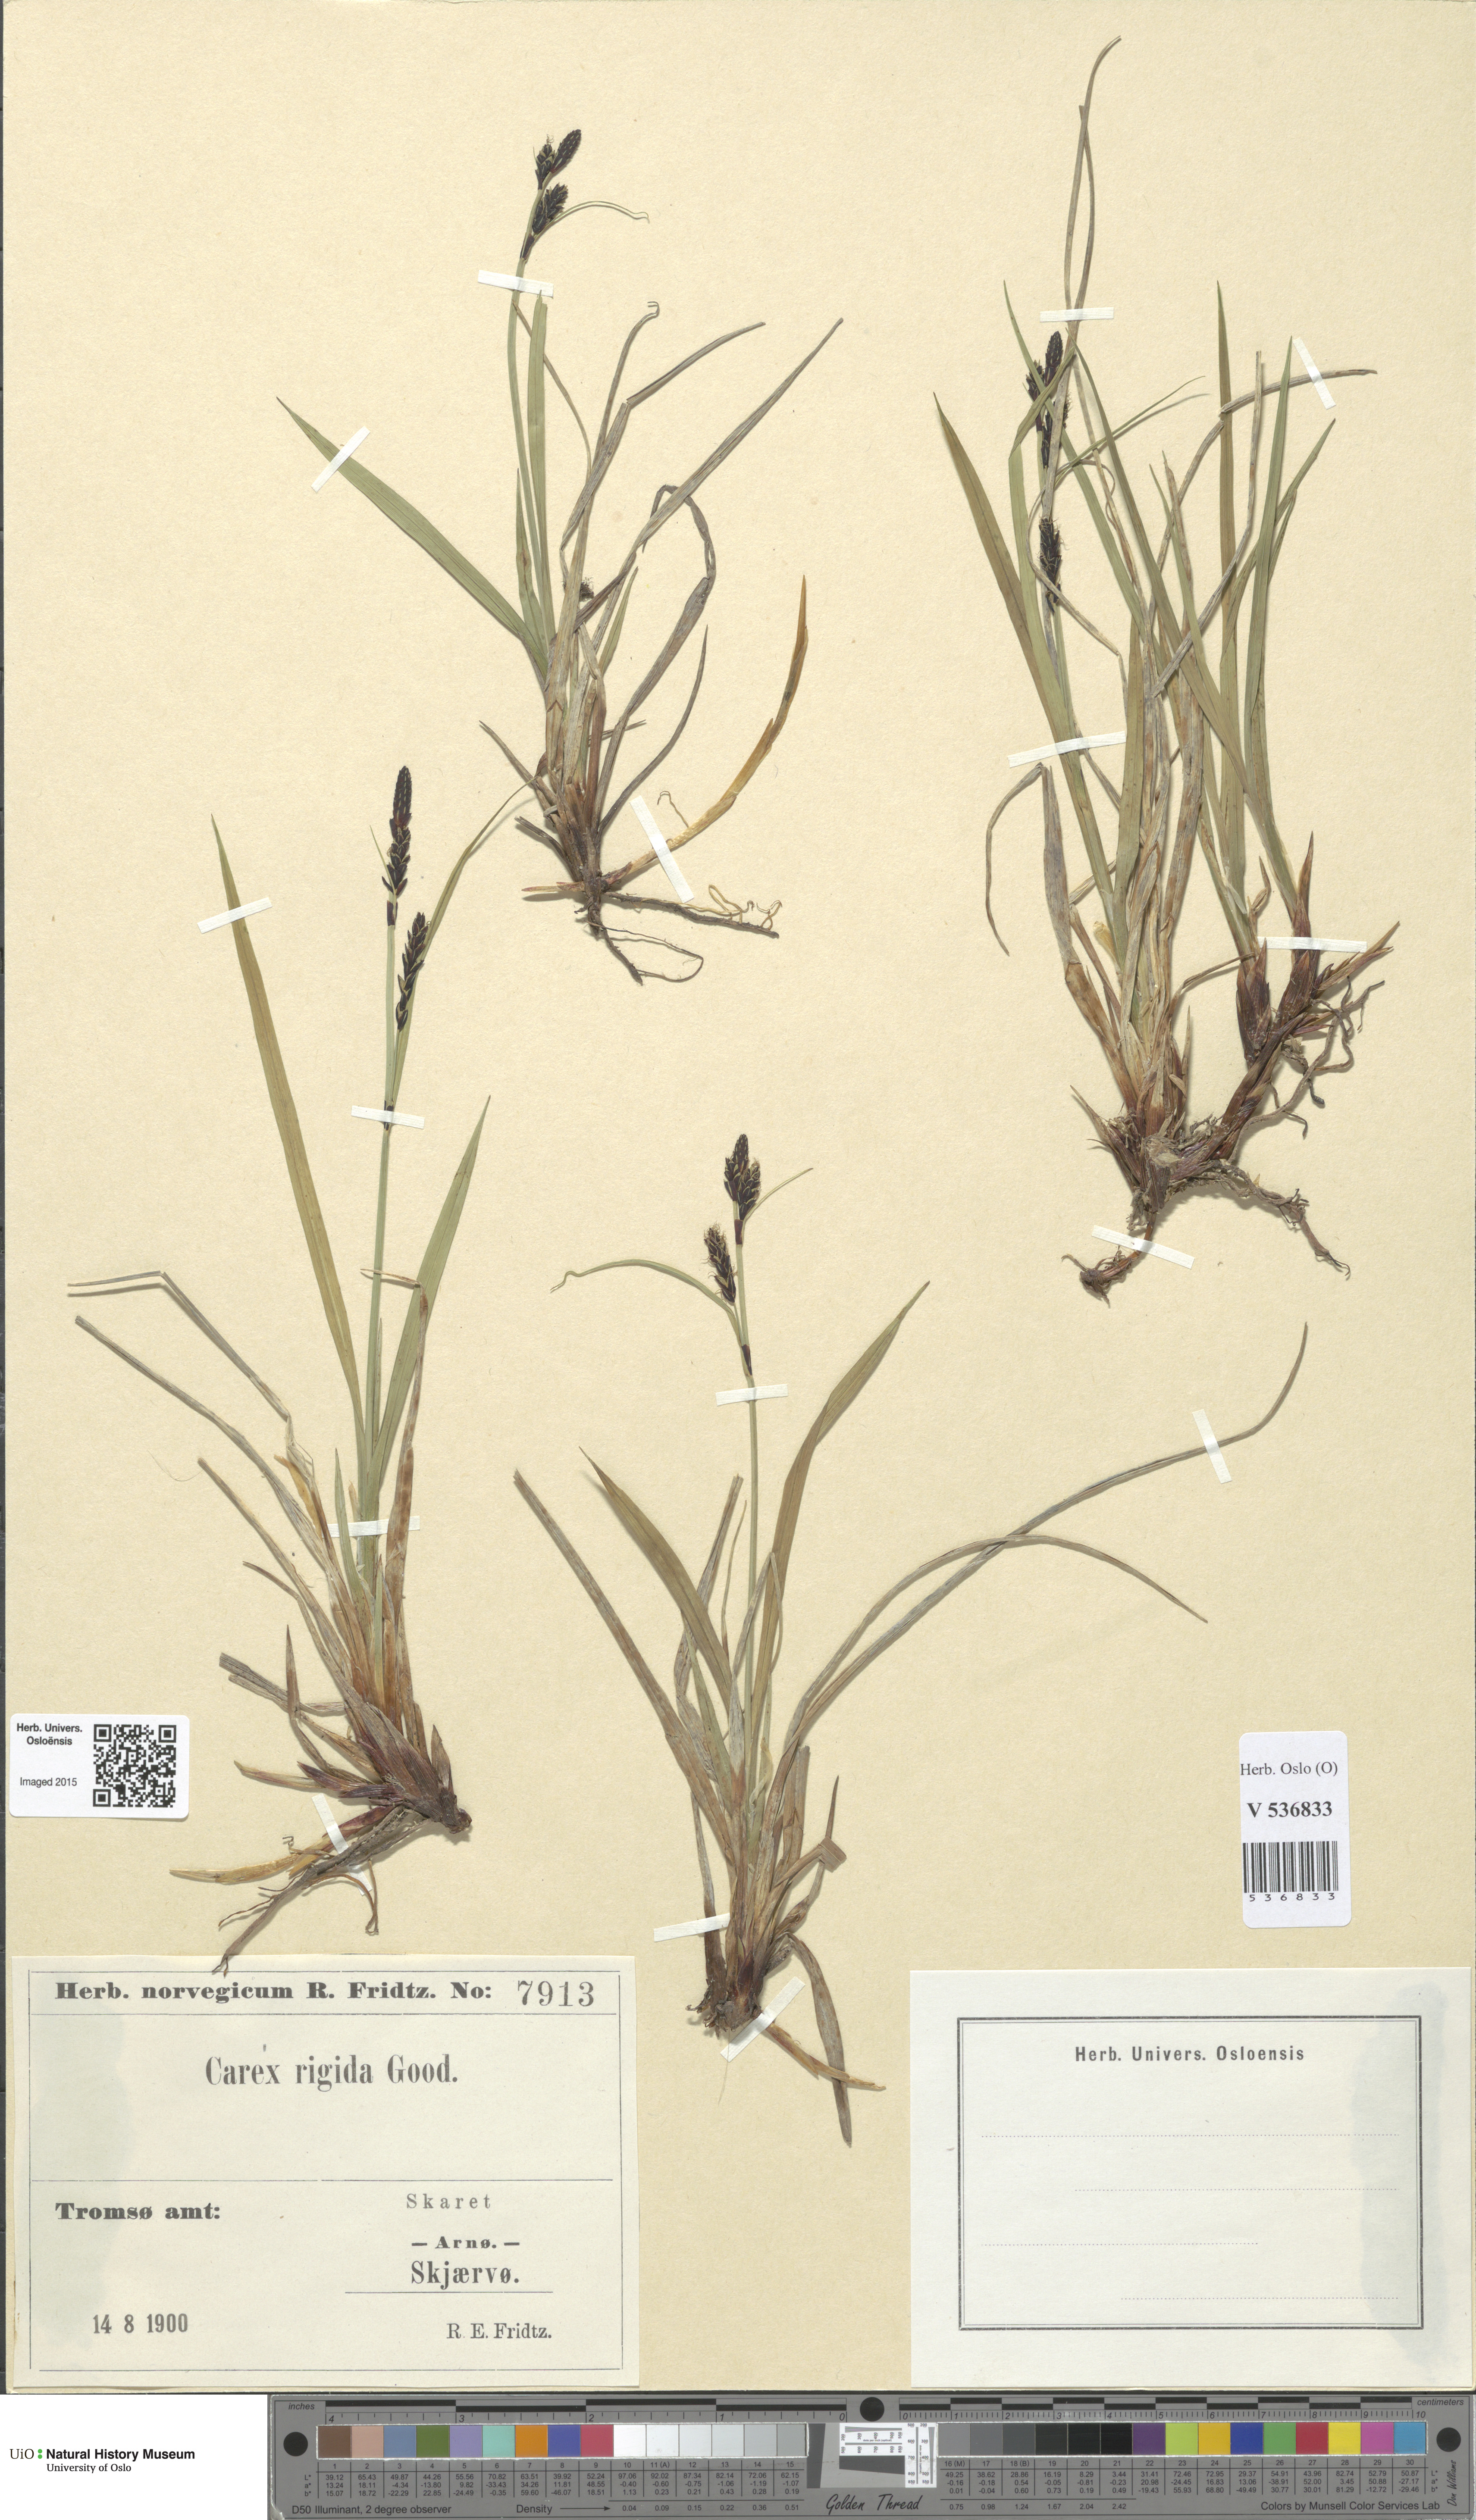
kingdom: Plantae
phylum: Tracheophyta
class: Liliopsida
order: Poales
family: Cyperaceae
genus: Carex
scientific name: Carex dacica
